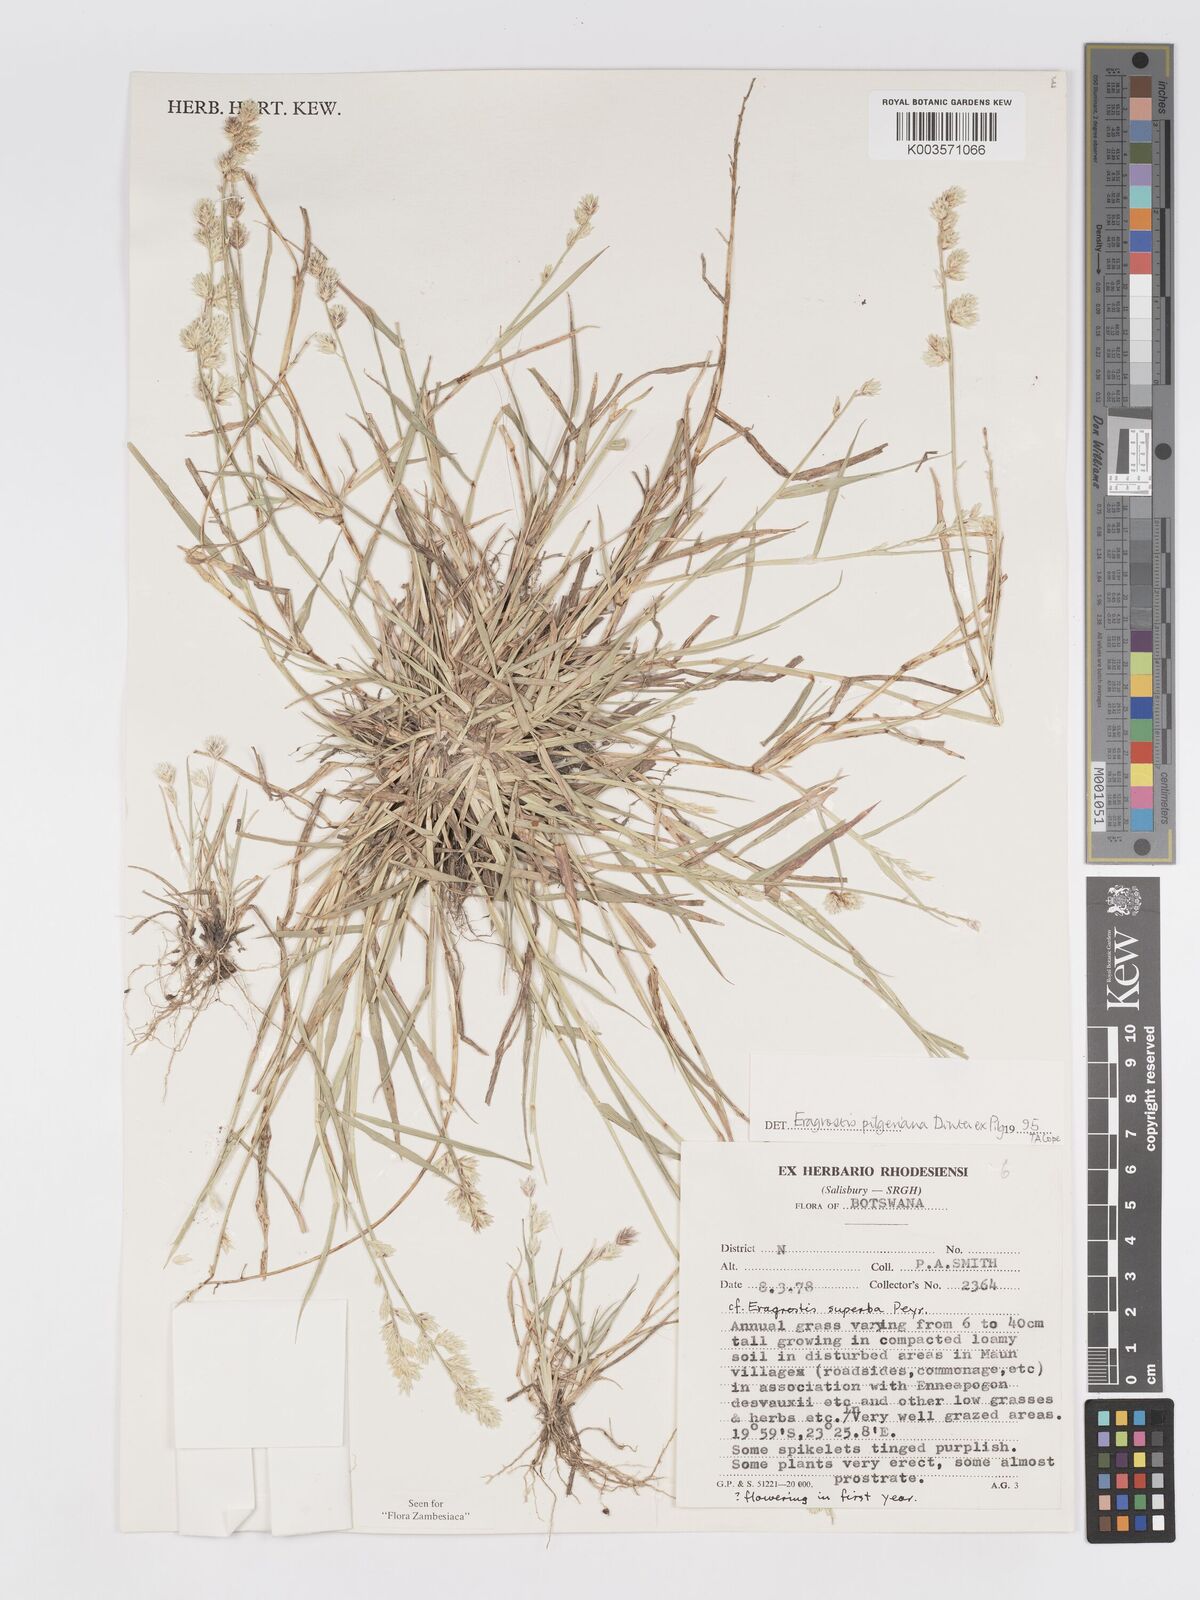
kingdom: Plantae
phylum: Tracheophyta
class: Liliopsida
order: Poales
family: Poaceae
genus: Eragrostis
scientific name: Eragrostis pilgeriana
